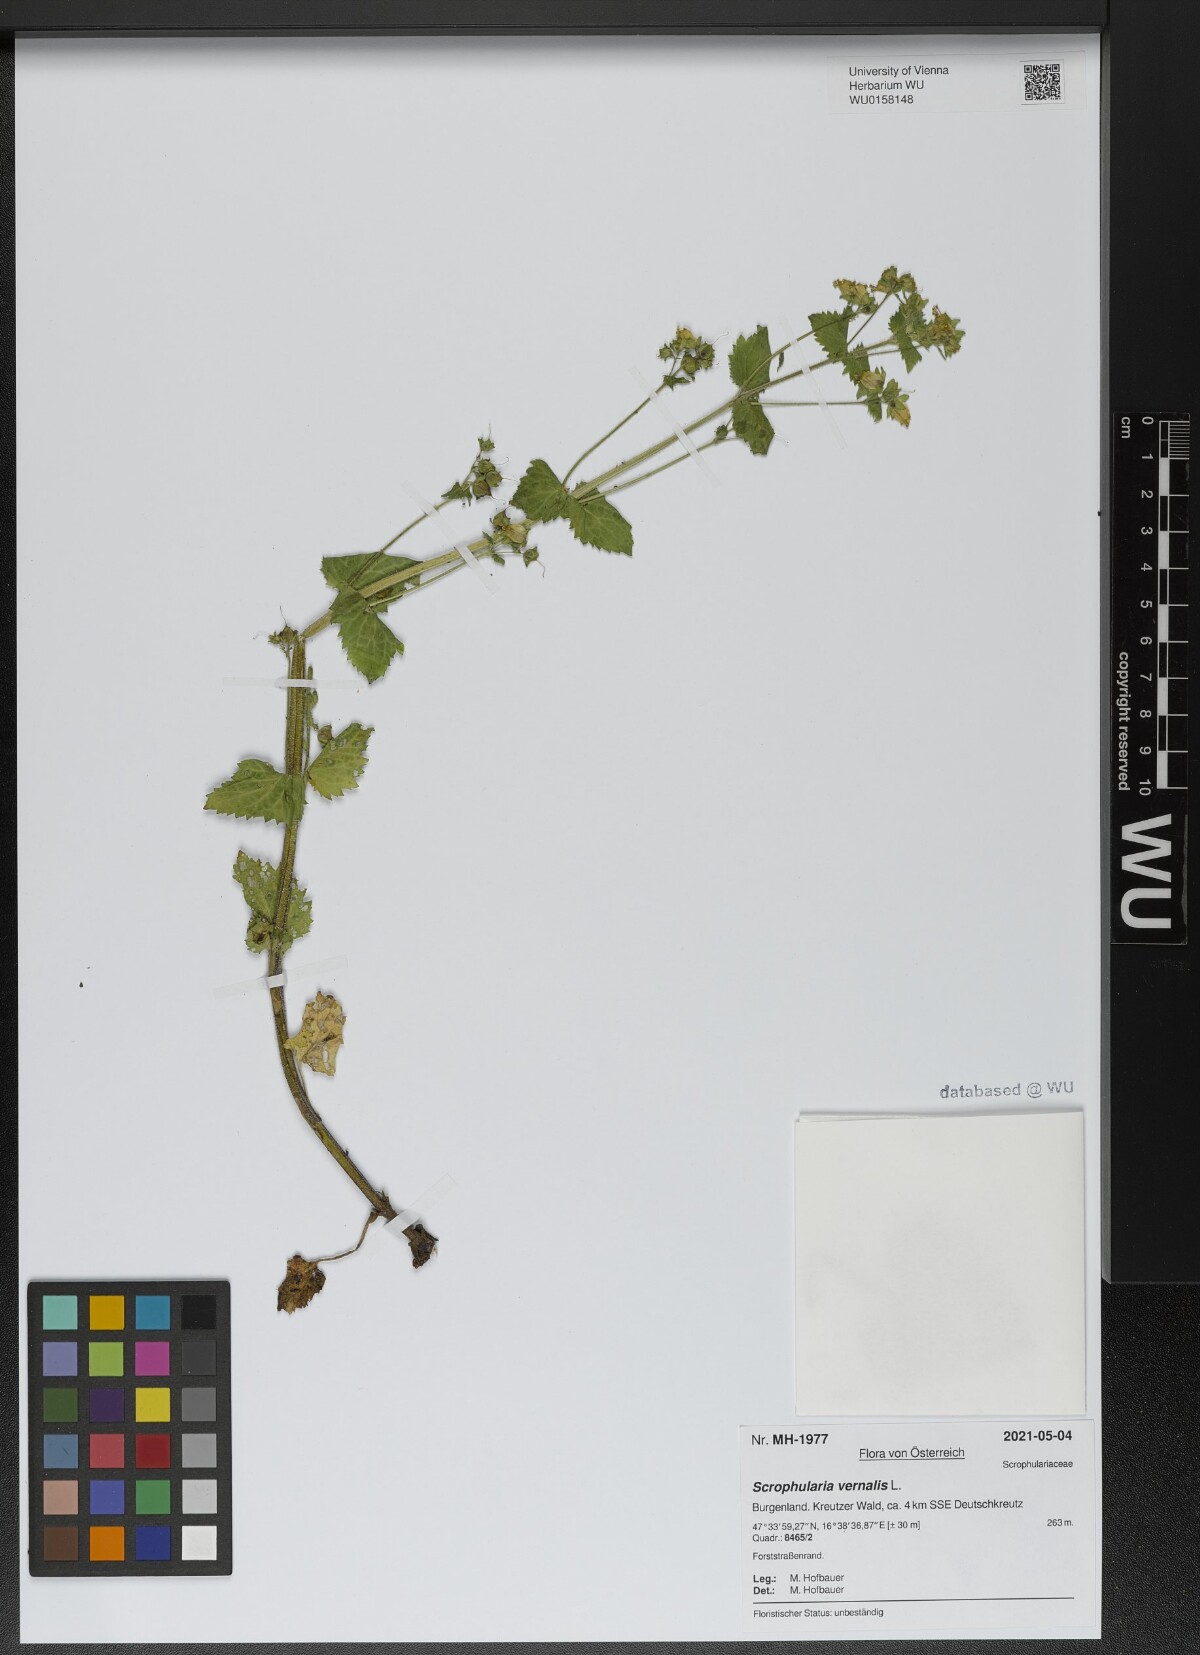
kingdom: Plantae
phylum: Tracheophyta
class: Magnoliopsida
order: Lamiales
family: Scrophulariaceae
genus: Scrophularia
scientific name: Scrophularia vernalis
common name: Yellow figwort
